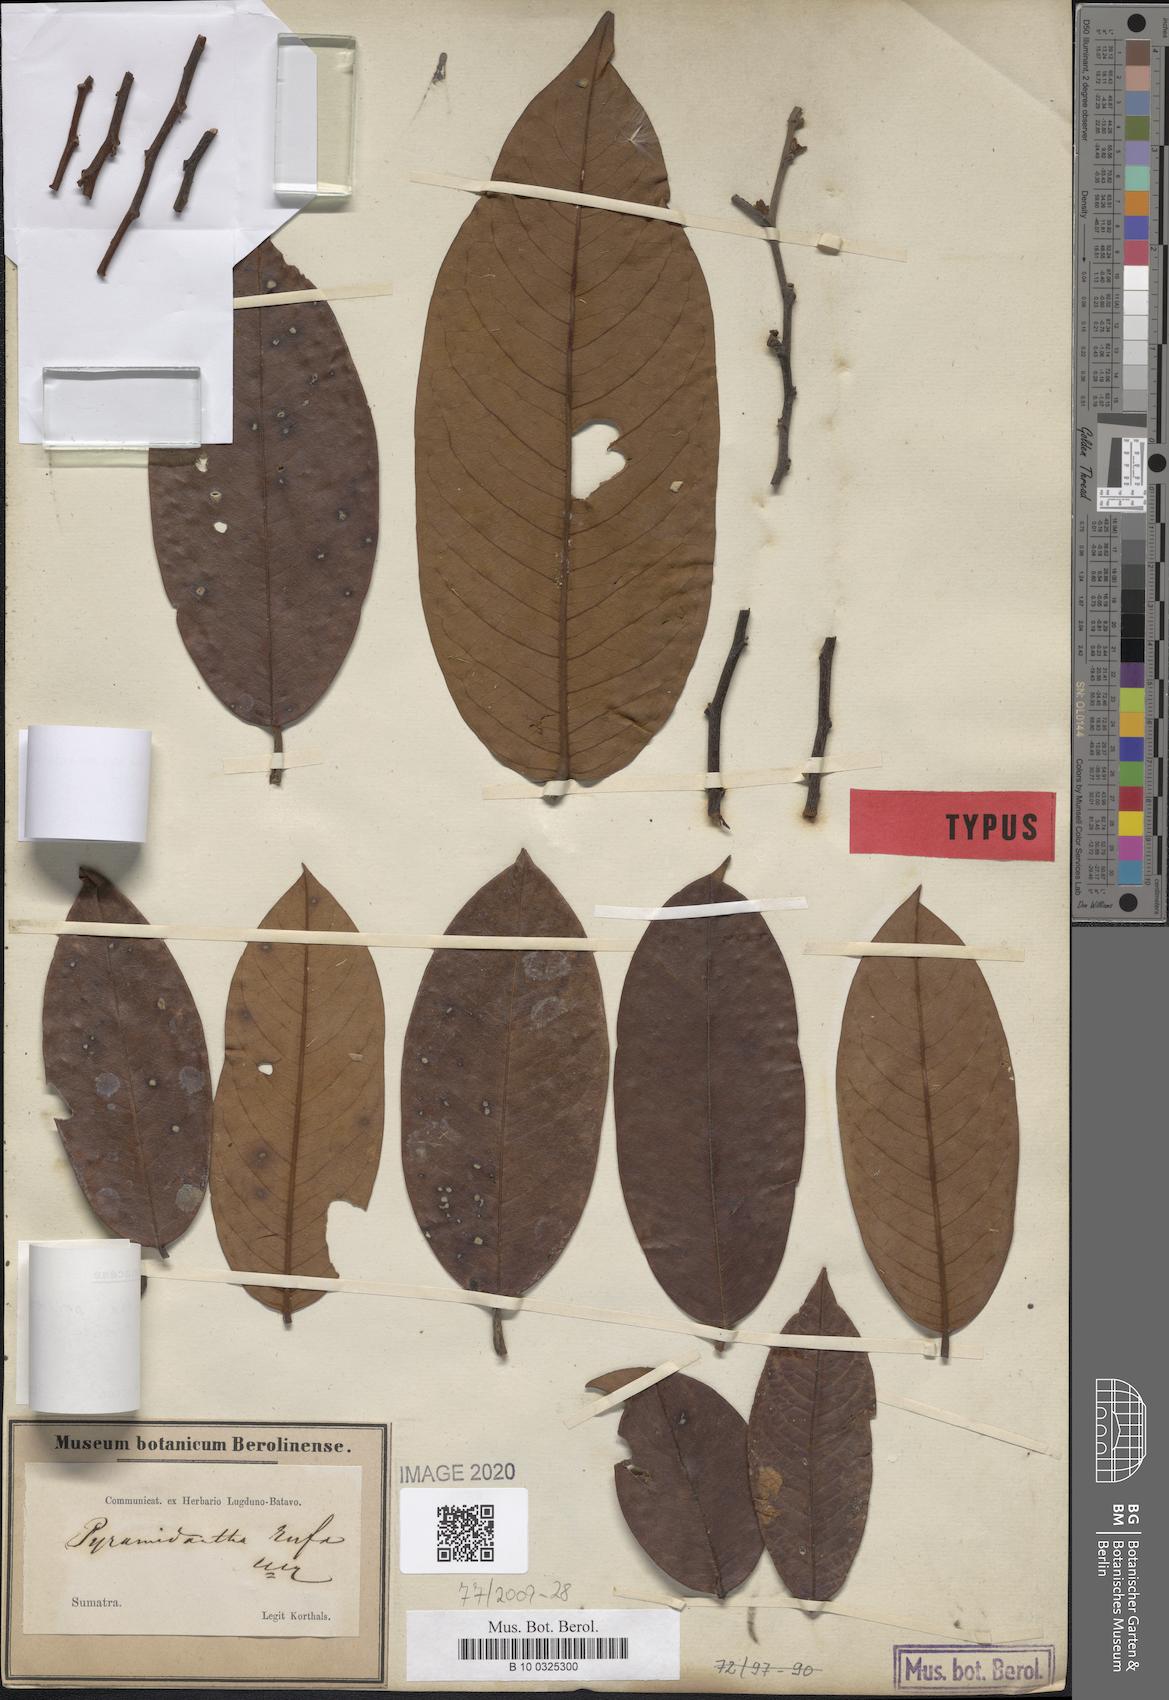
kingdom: Plantae
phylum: Tracheophyta
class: Magnoliopsida
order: Magnoliales
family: Annonaceae
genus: Pyramidanthe
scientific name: Pyramidanthe prismatica
